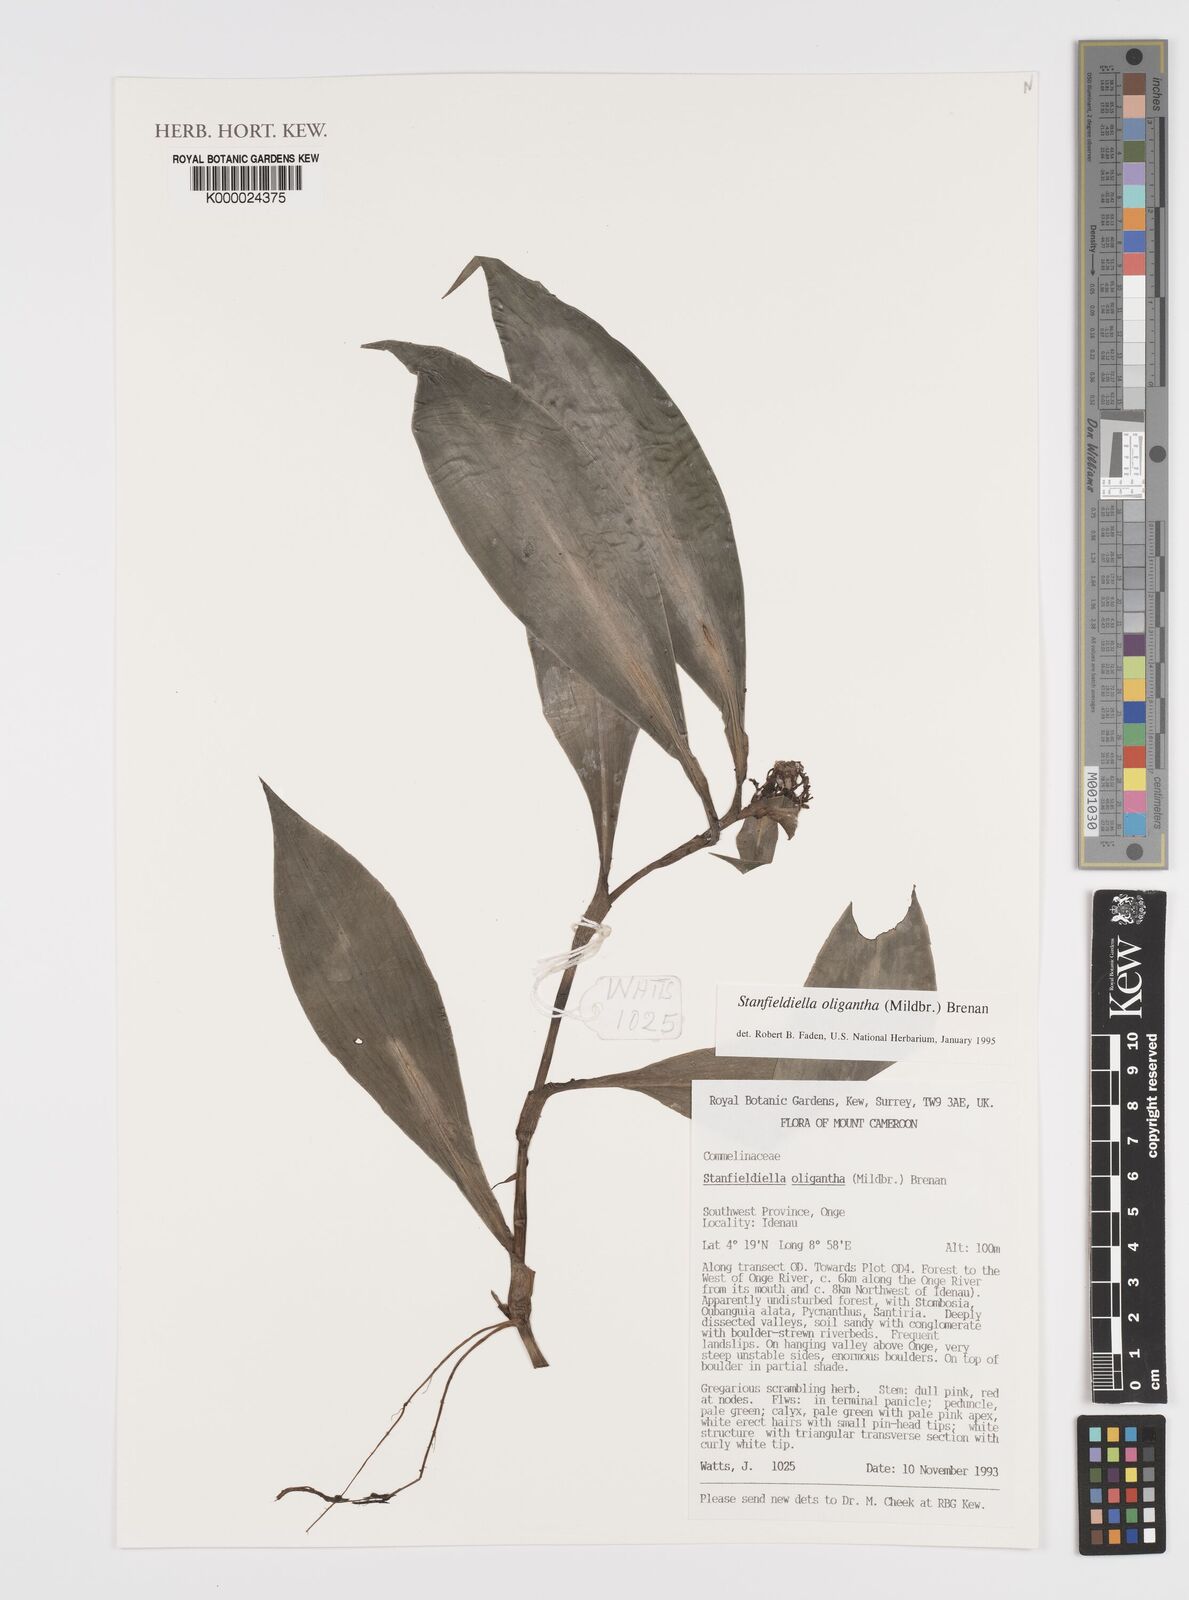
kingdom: Plantae
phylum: Tracheophyta
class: Liliopsida
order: Commelinales
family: Commelinaceae
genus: Stanfieldiella
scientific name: Stanfieldiella oligantha
